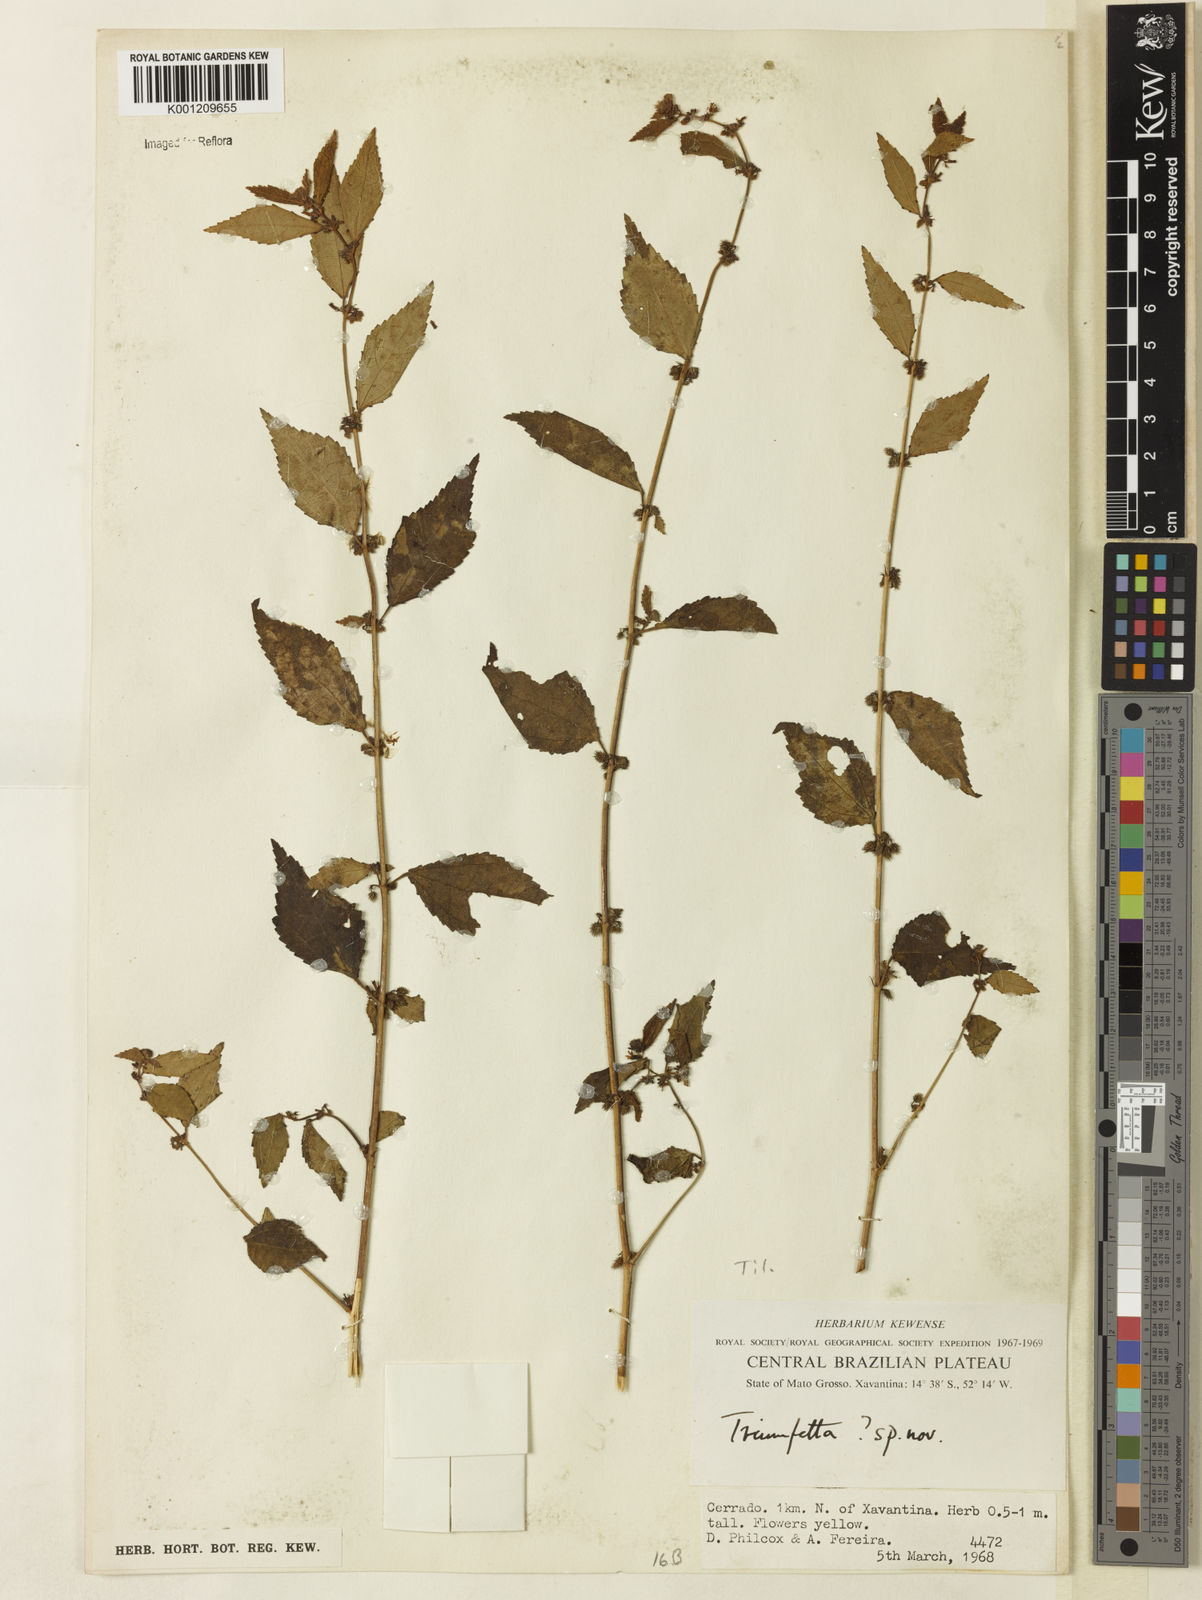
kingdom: Plantae
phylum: Tracheophyta
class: Magnoliopsida
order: Malvales
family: Malvaceae
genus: Triumfetta
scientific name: Triumfetta
